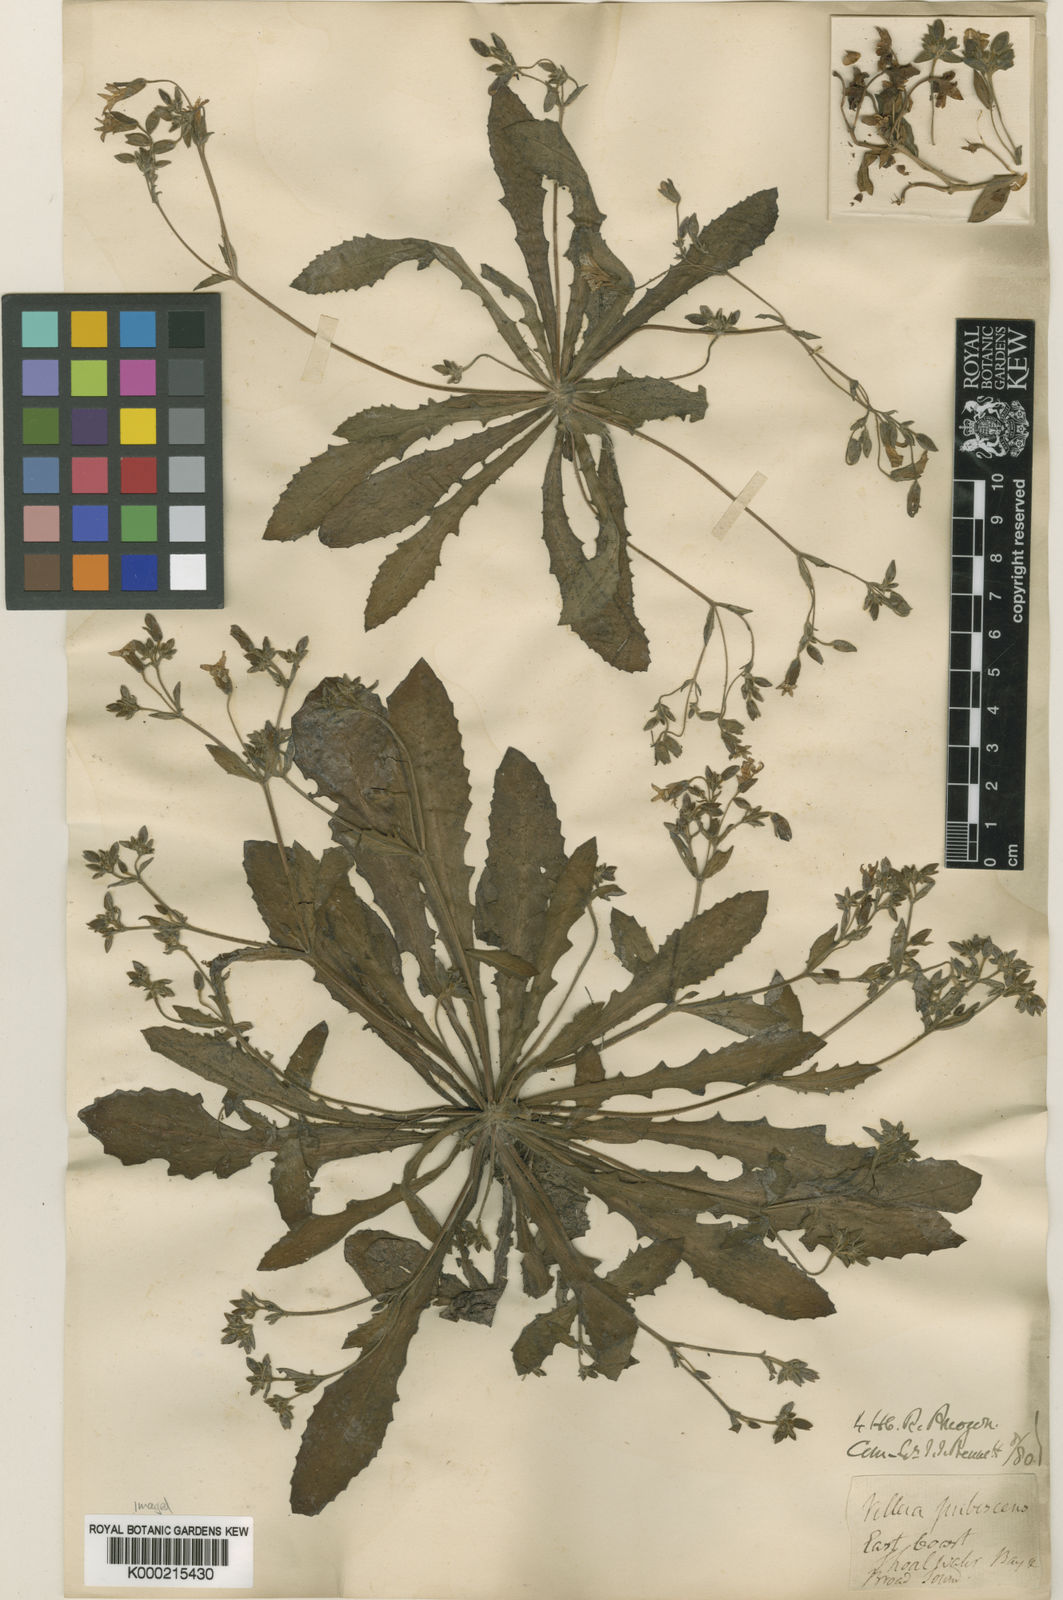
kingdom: Plantae
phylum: Tracheophyta
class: Magnoliopsida
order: Asterales
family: Goodeniaceae
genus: Goodenia
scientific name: Goodenia subsolana
